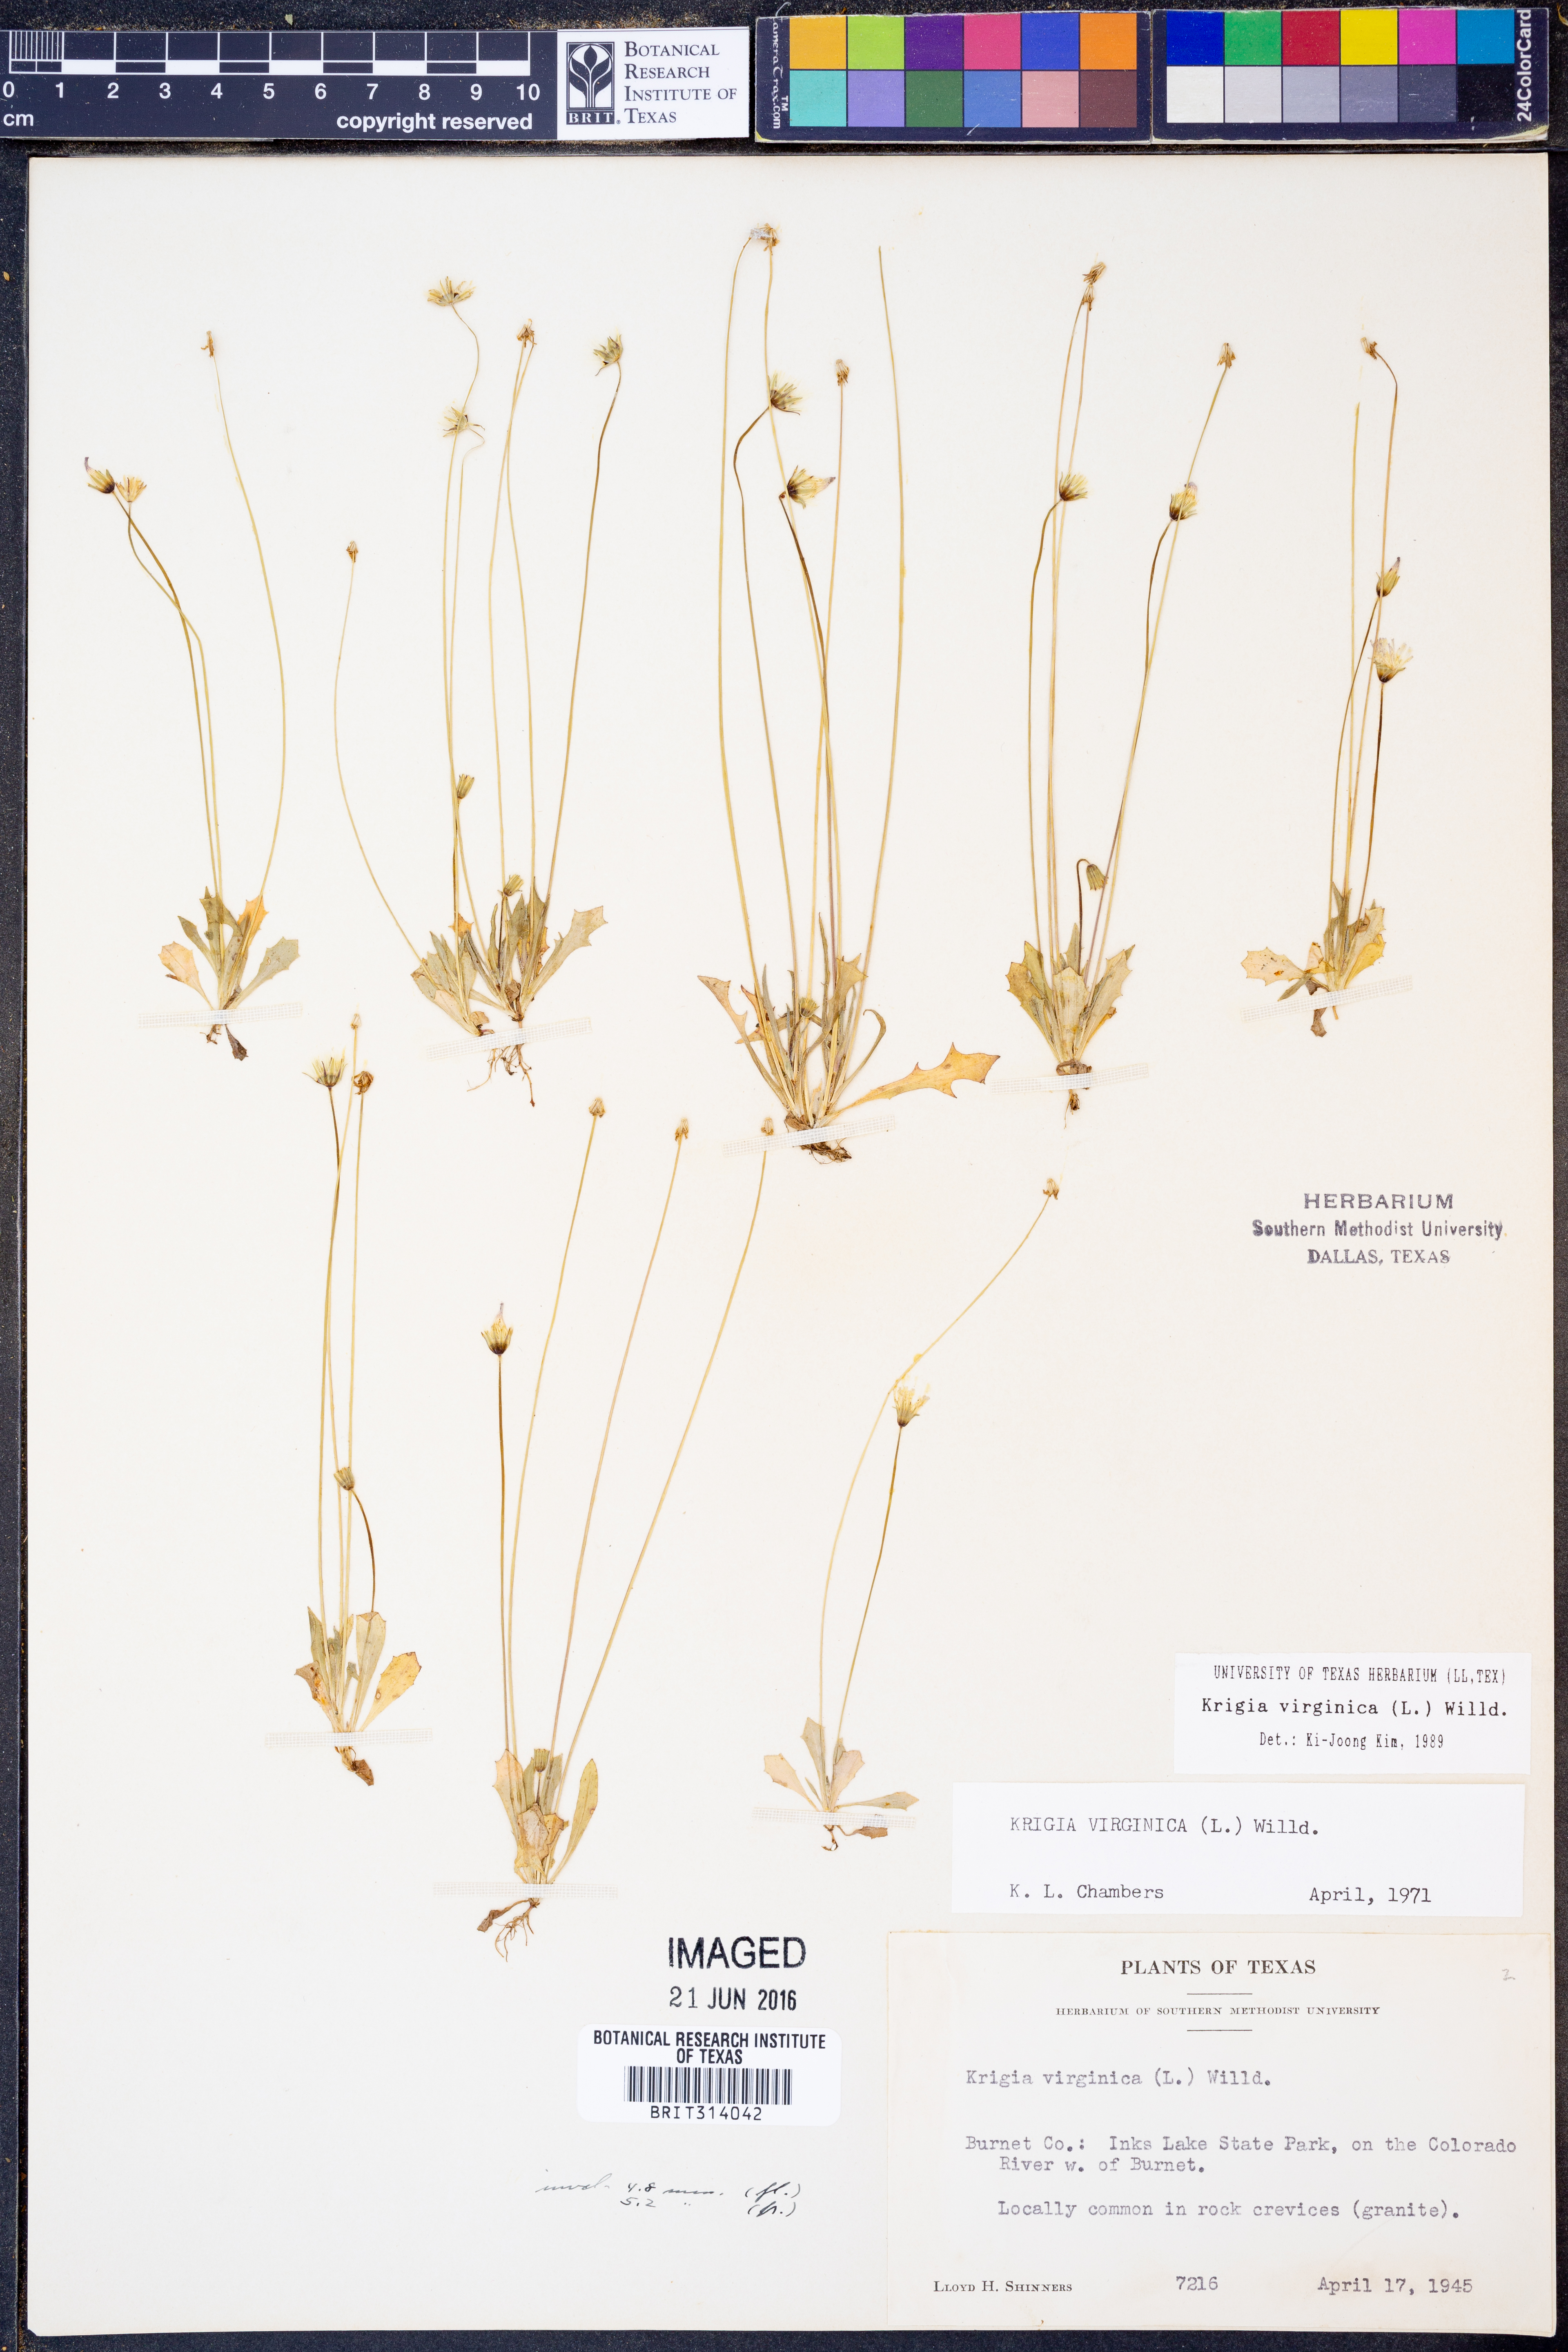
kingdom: Plantae
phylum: Tracheophyta
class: Magnoliopsida
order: Asterales
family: Asteraceae
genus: Krigia
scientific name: Krigia virginica
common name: Virginia dwarf-dandelion
